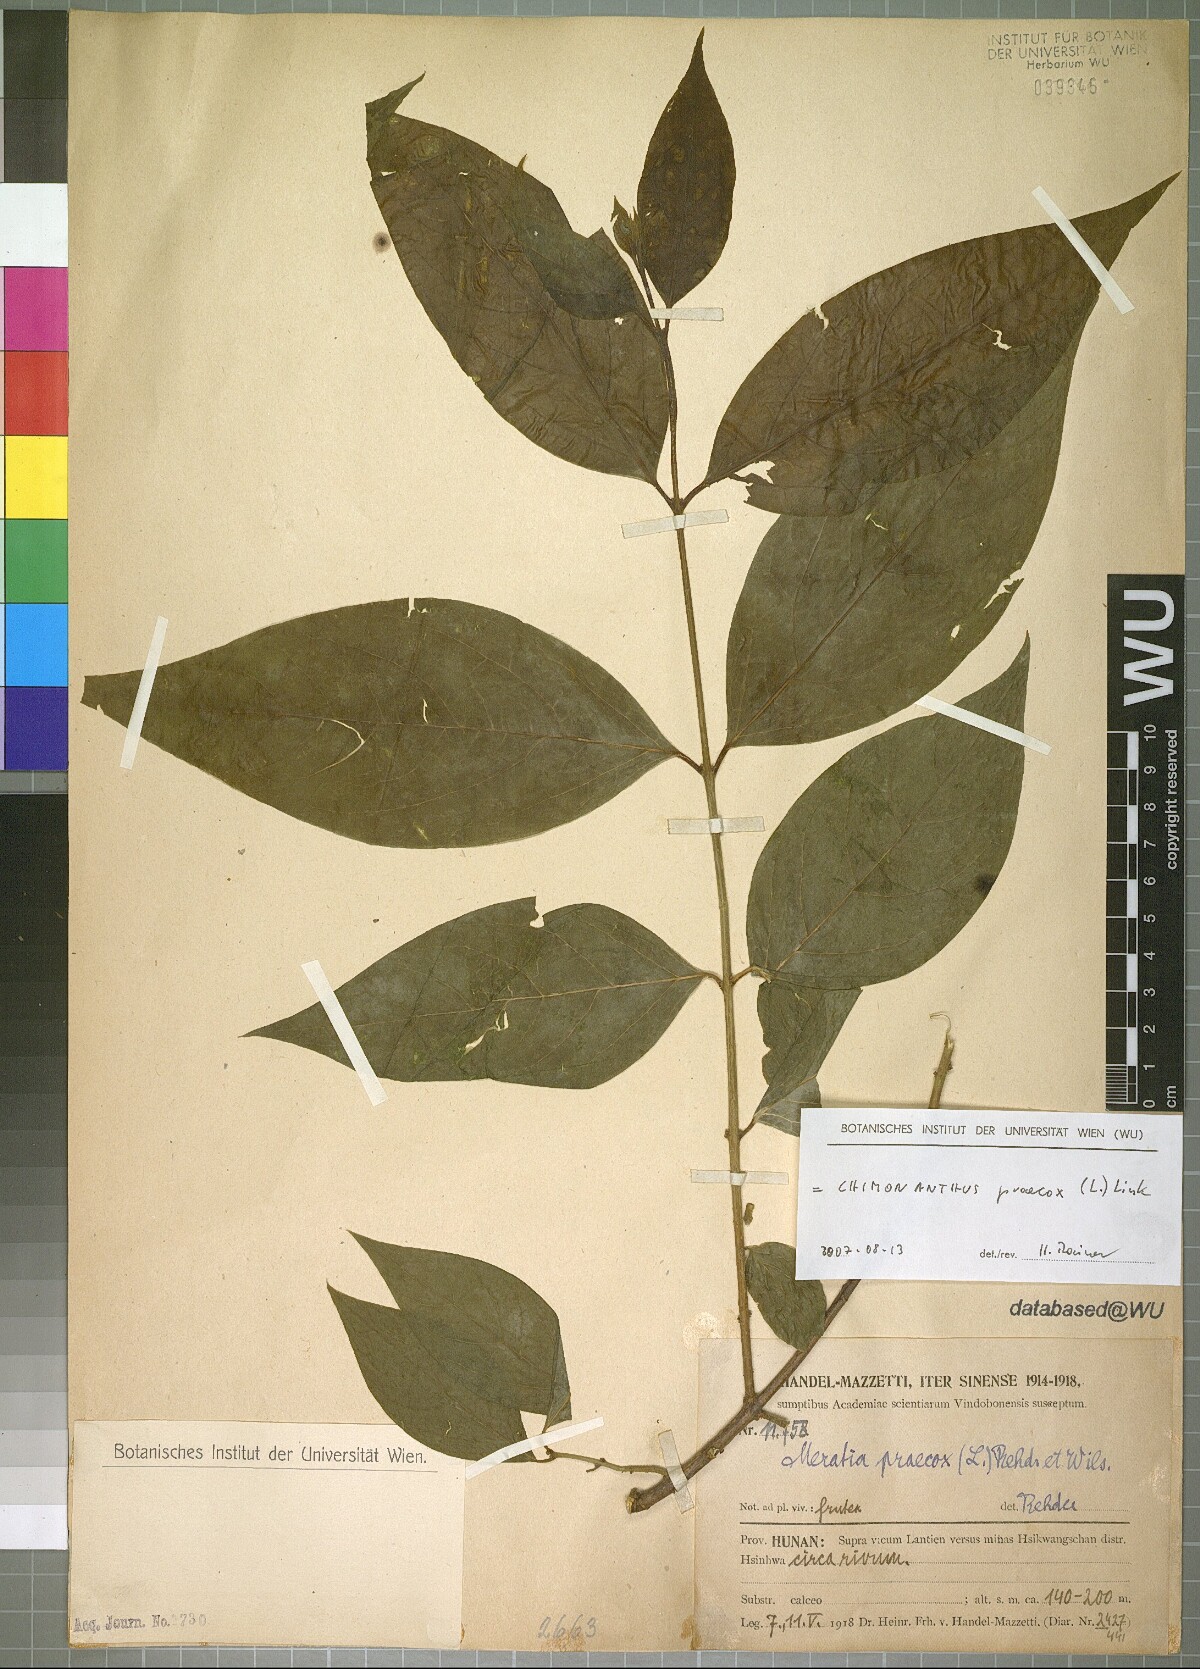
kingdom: Plantae
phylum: Tracheophyta
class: Magnoliopsida
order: Laurales
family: Calycanthaceae
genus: Chimonanthus
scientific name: Chimonanthus praecox
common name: Wintersweet
